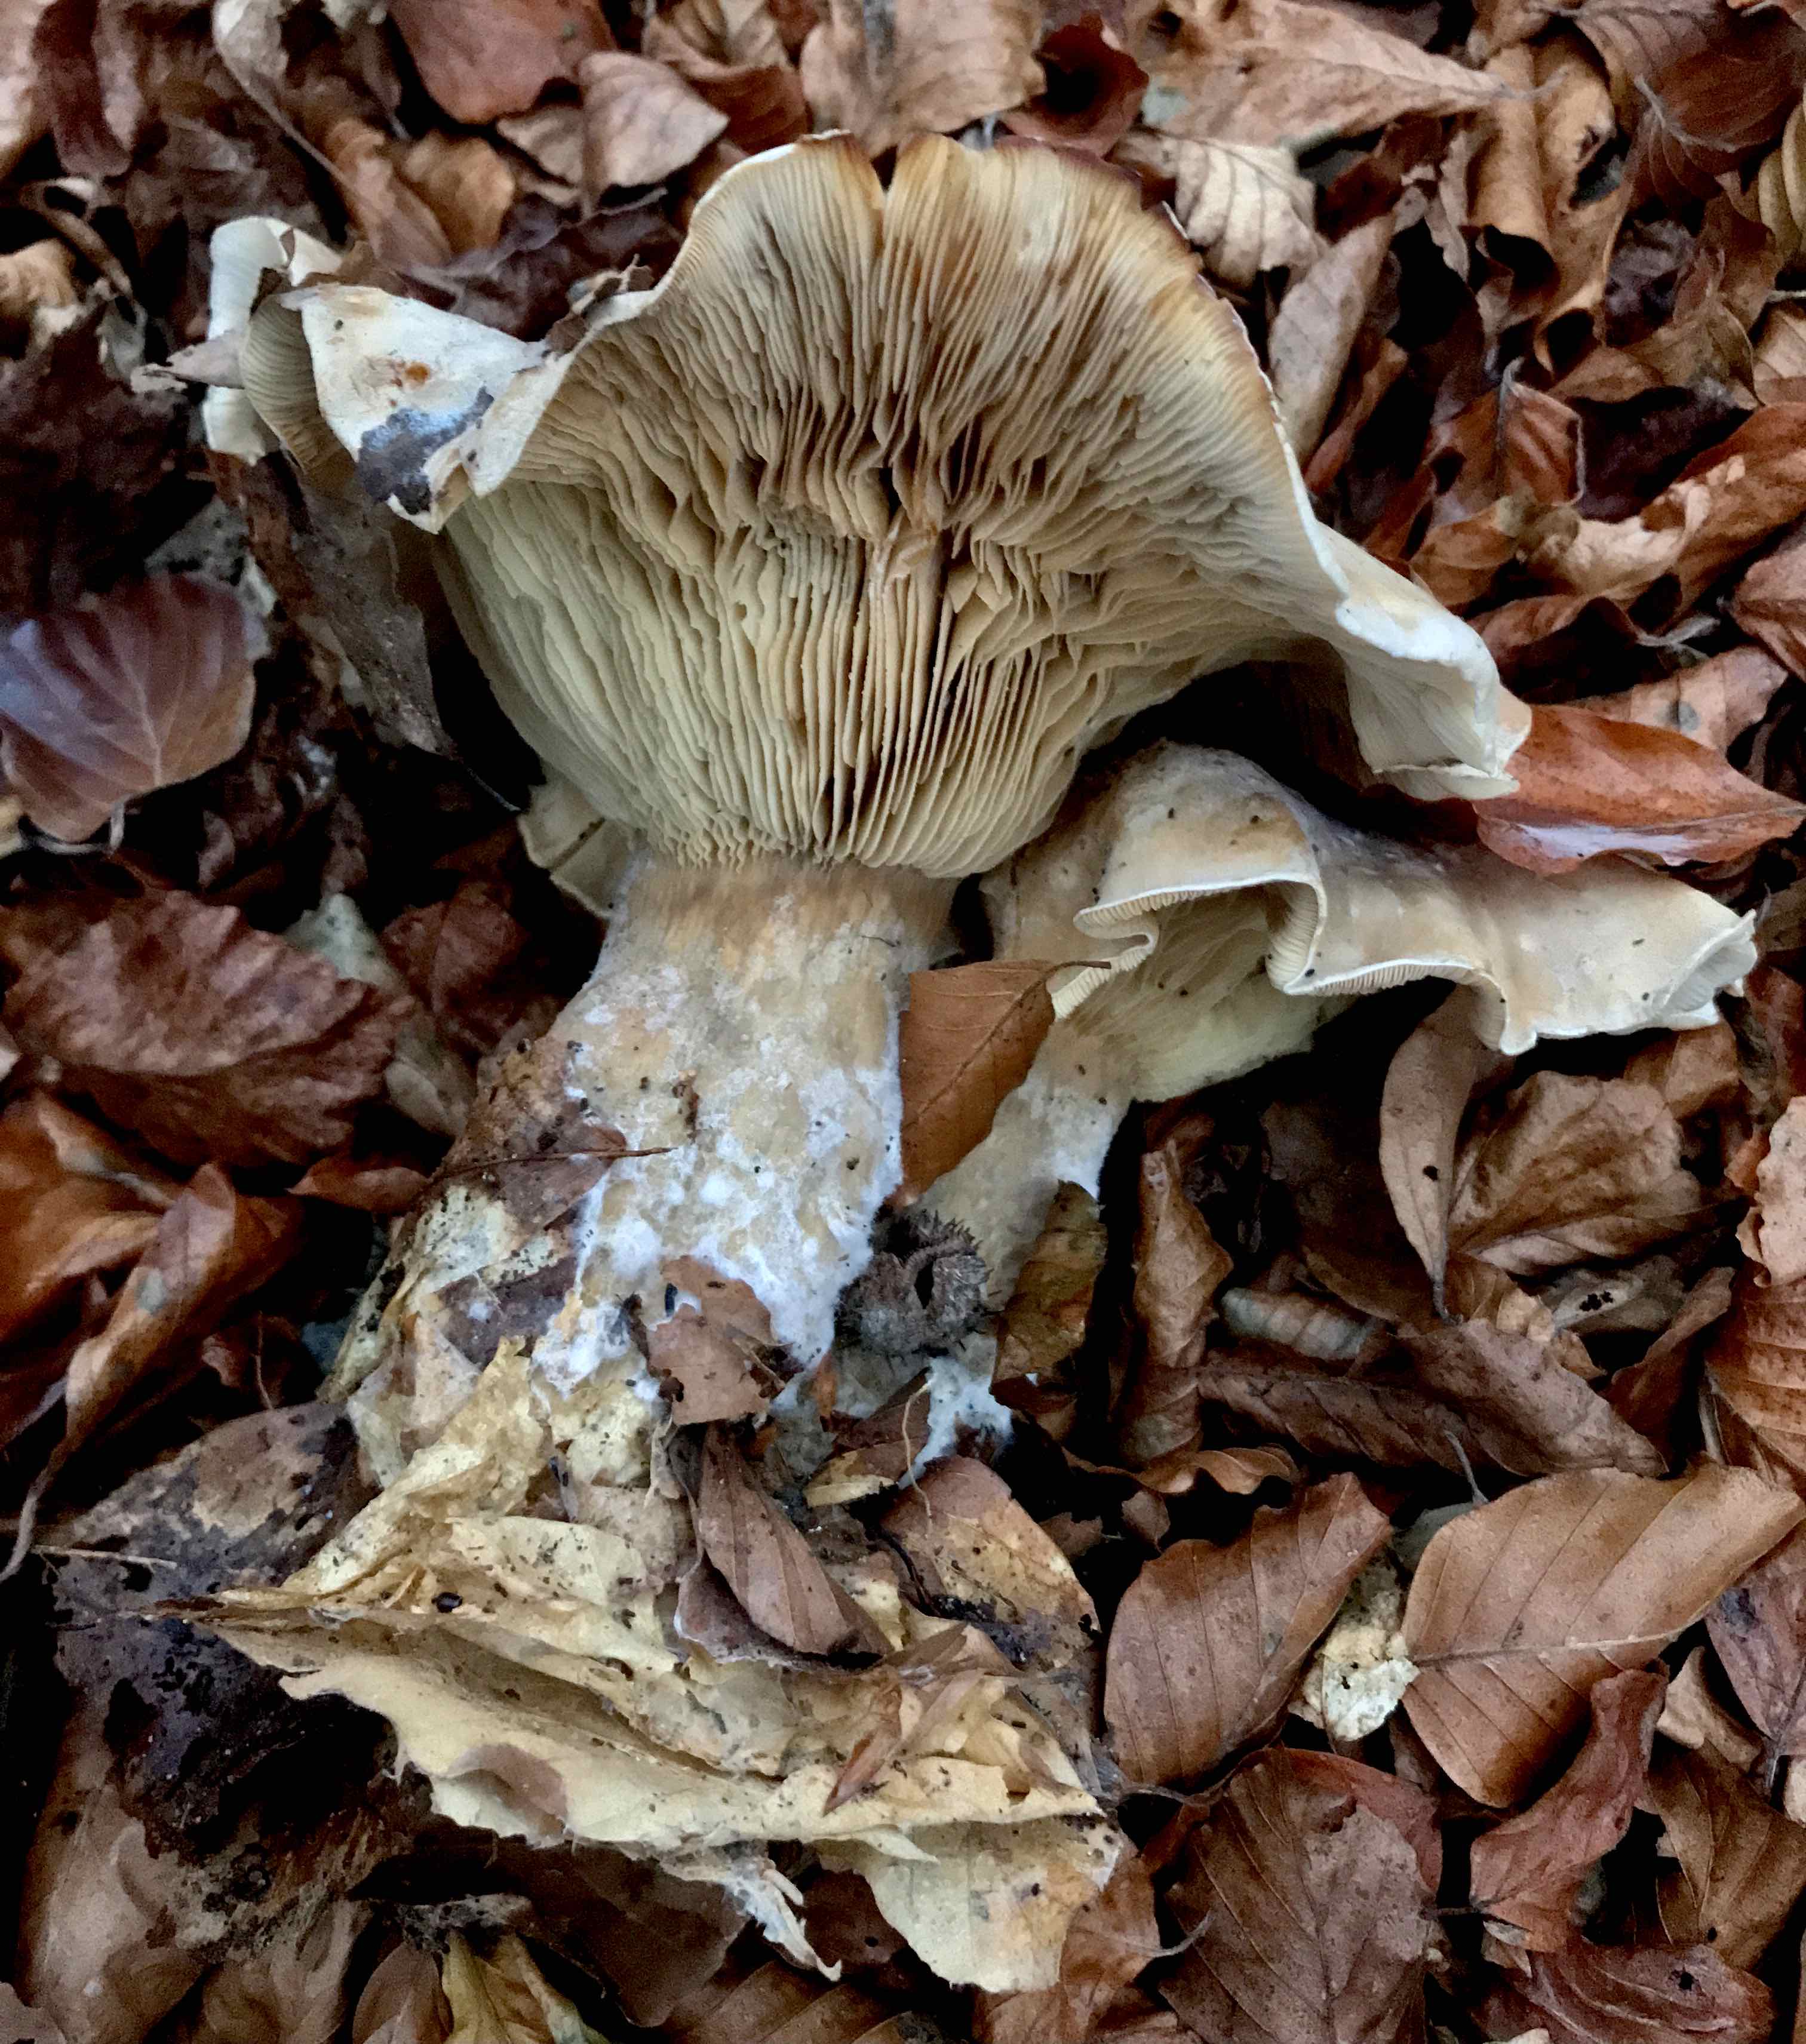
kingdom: Fungi
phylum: Basidiomycota
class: Agaricomycetes
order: Agaricales
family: Tricholomataceae
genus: Clitocybe
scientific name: Clitocybe nebularis
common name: tåge-tragthat
